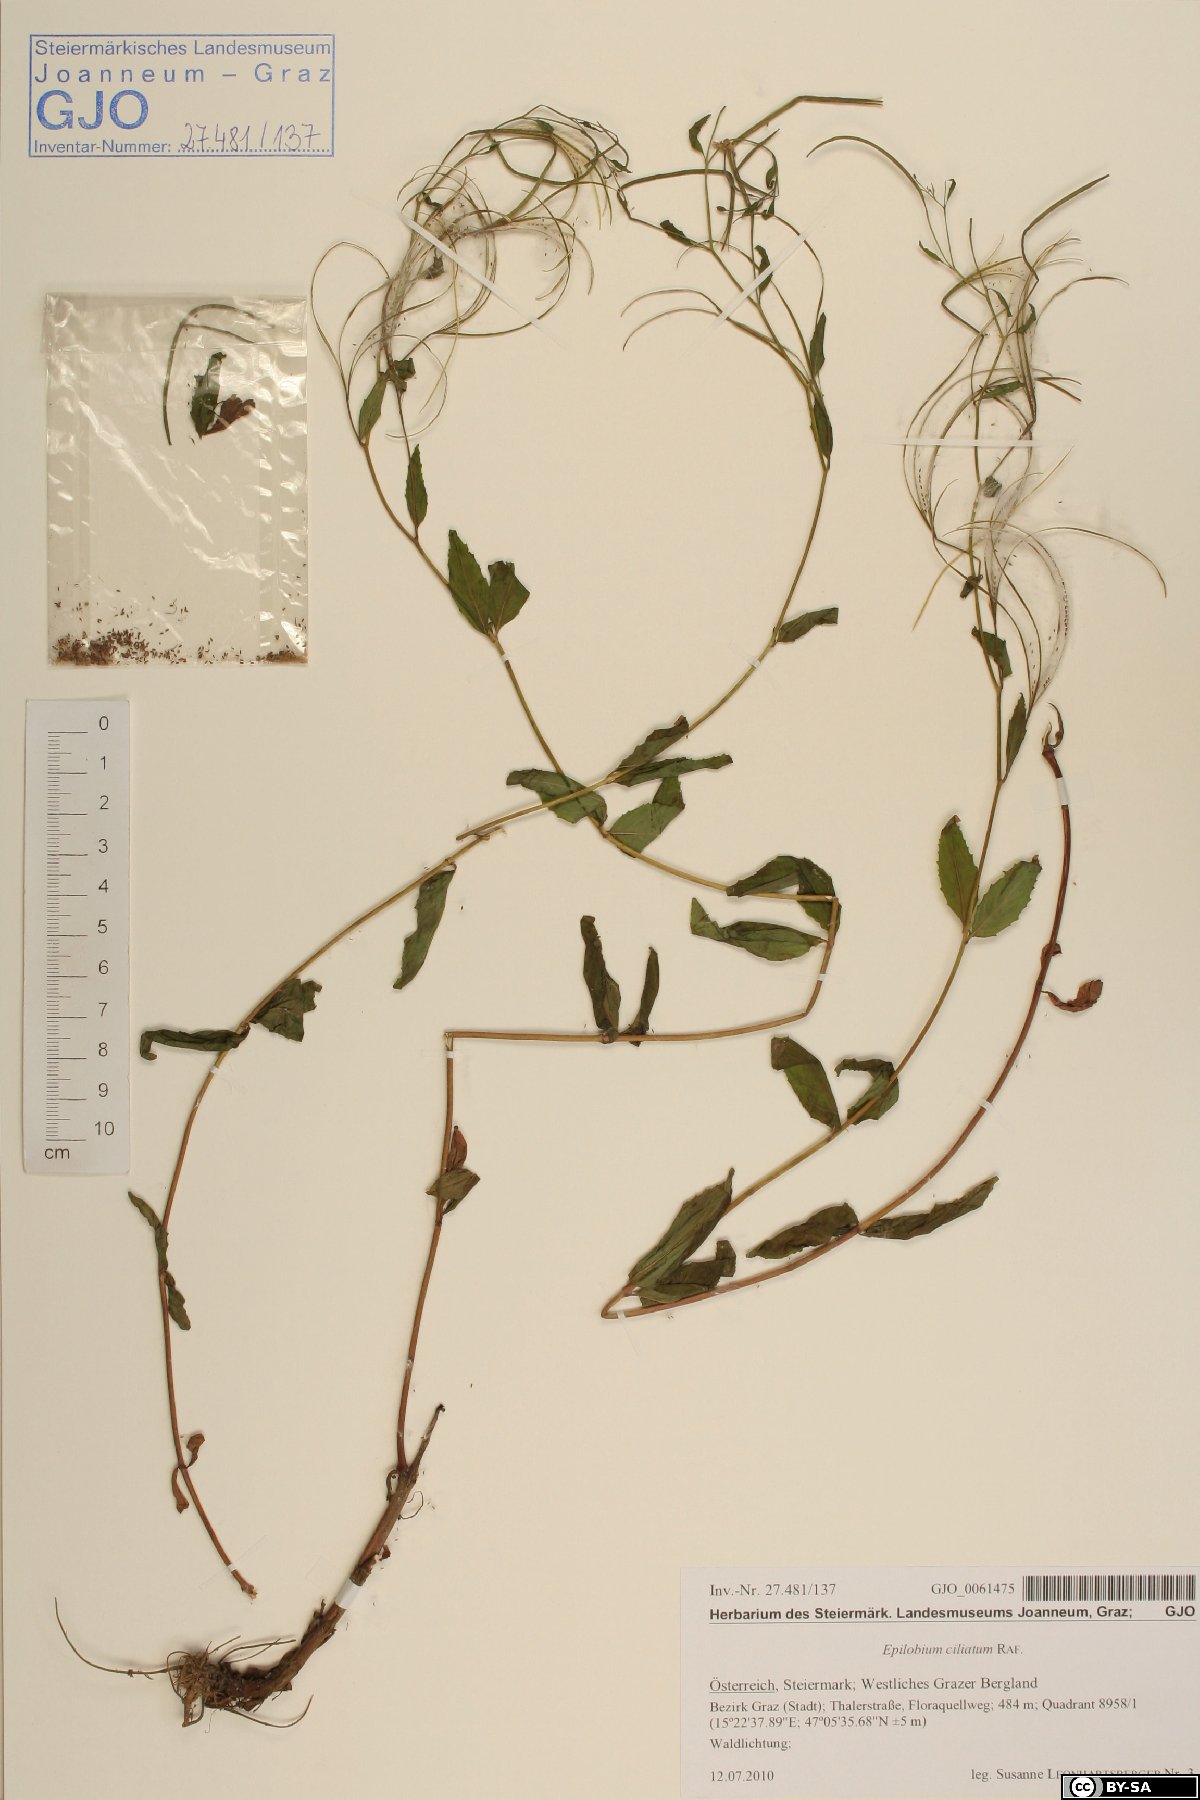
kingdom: Plantae
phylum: Tracheophyta
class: Magnoliopsida
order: Myrtales
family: Onagraceae
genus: Epilobium
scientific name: Epilobium ciliatum
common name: American willowherb
